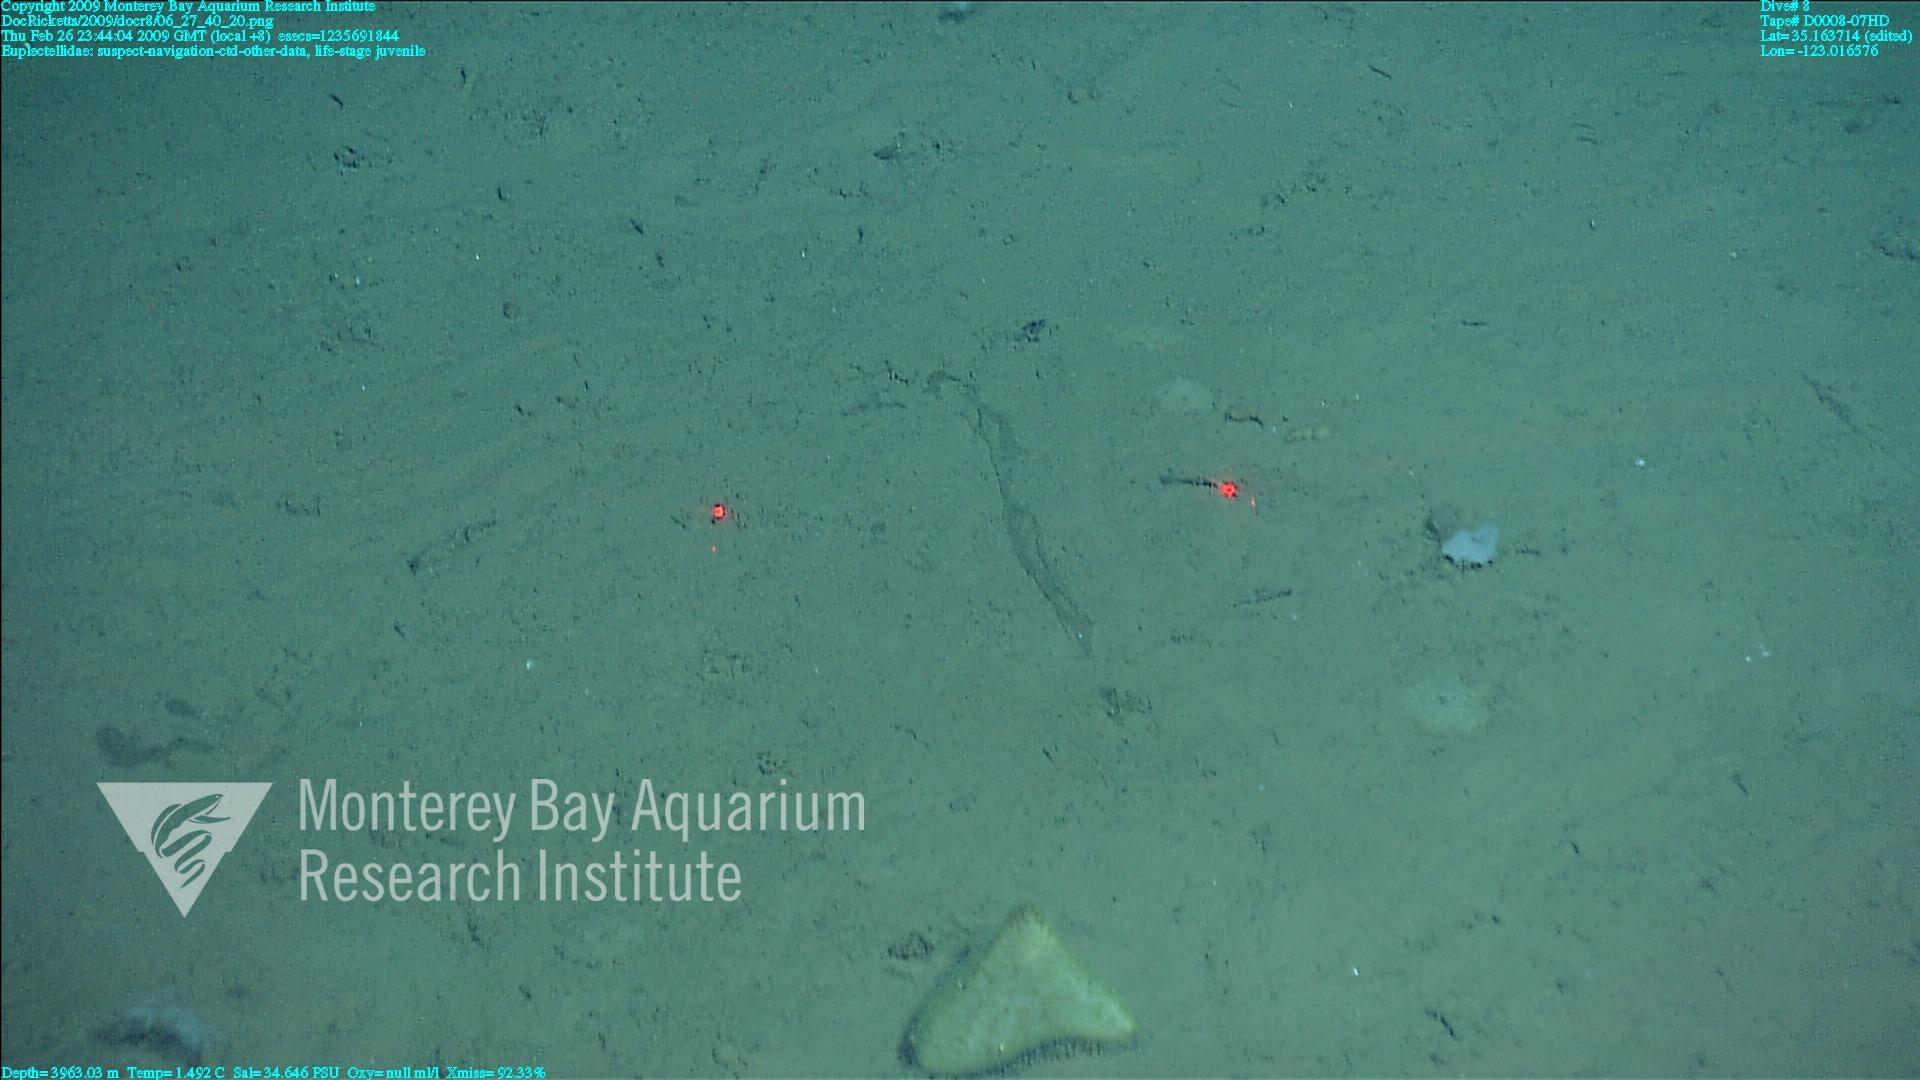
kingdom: Animalia
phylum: Porifera
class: Hexactinellida
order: Lyssacinosida
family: Euplectellidae
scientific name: Euplectellidae
